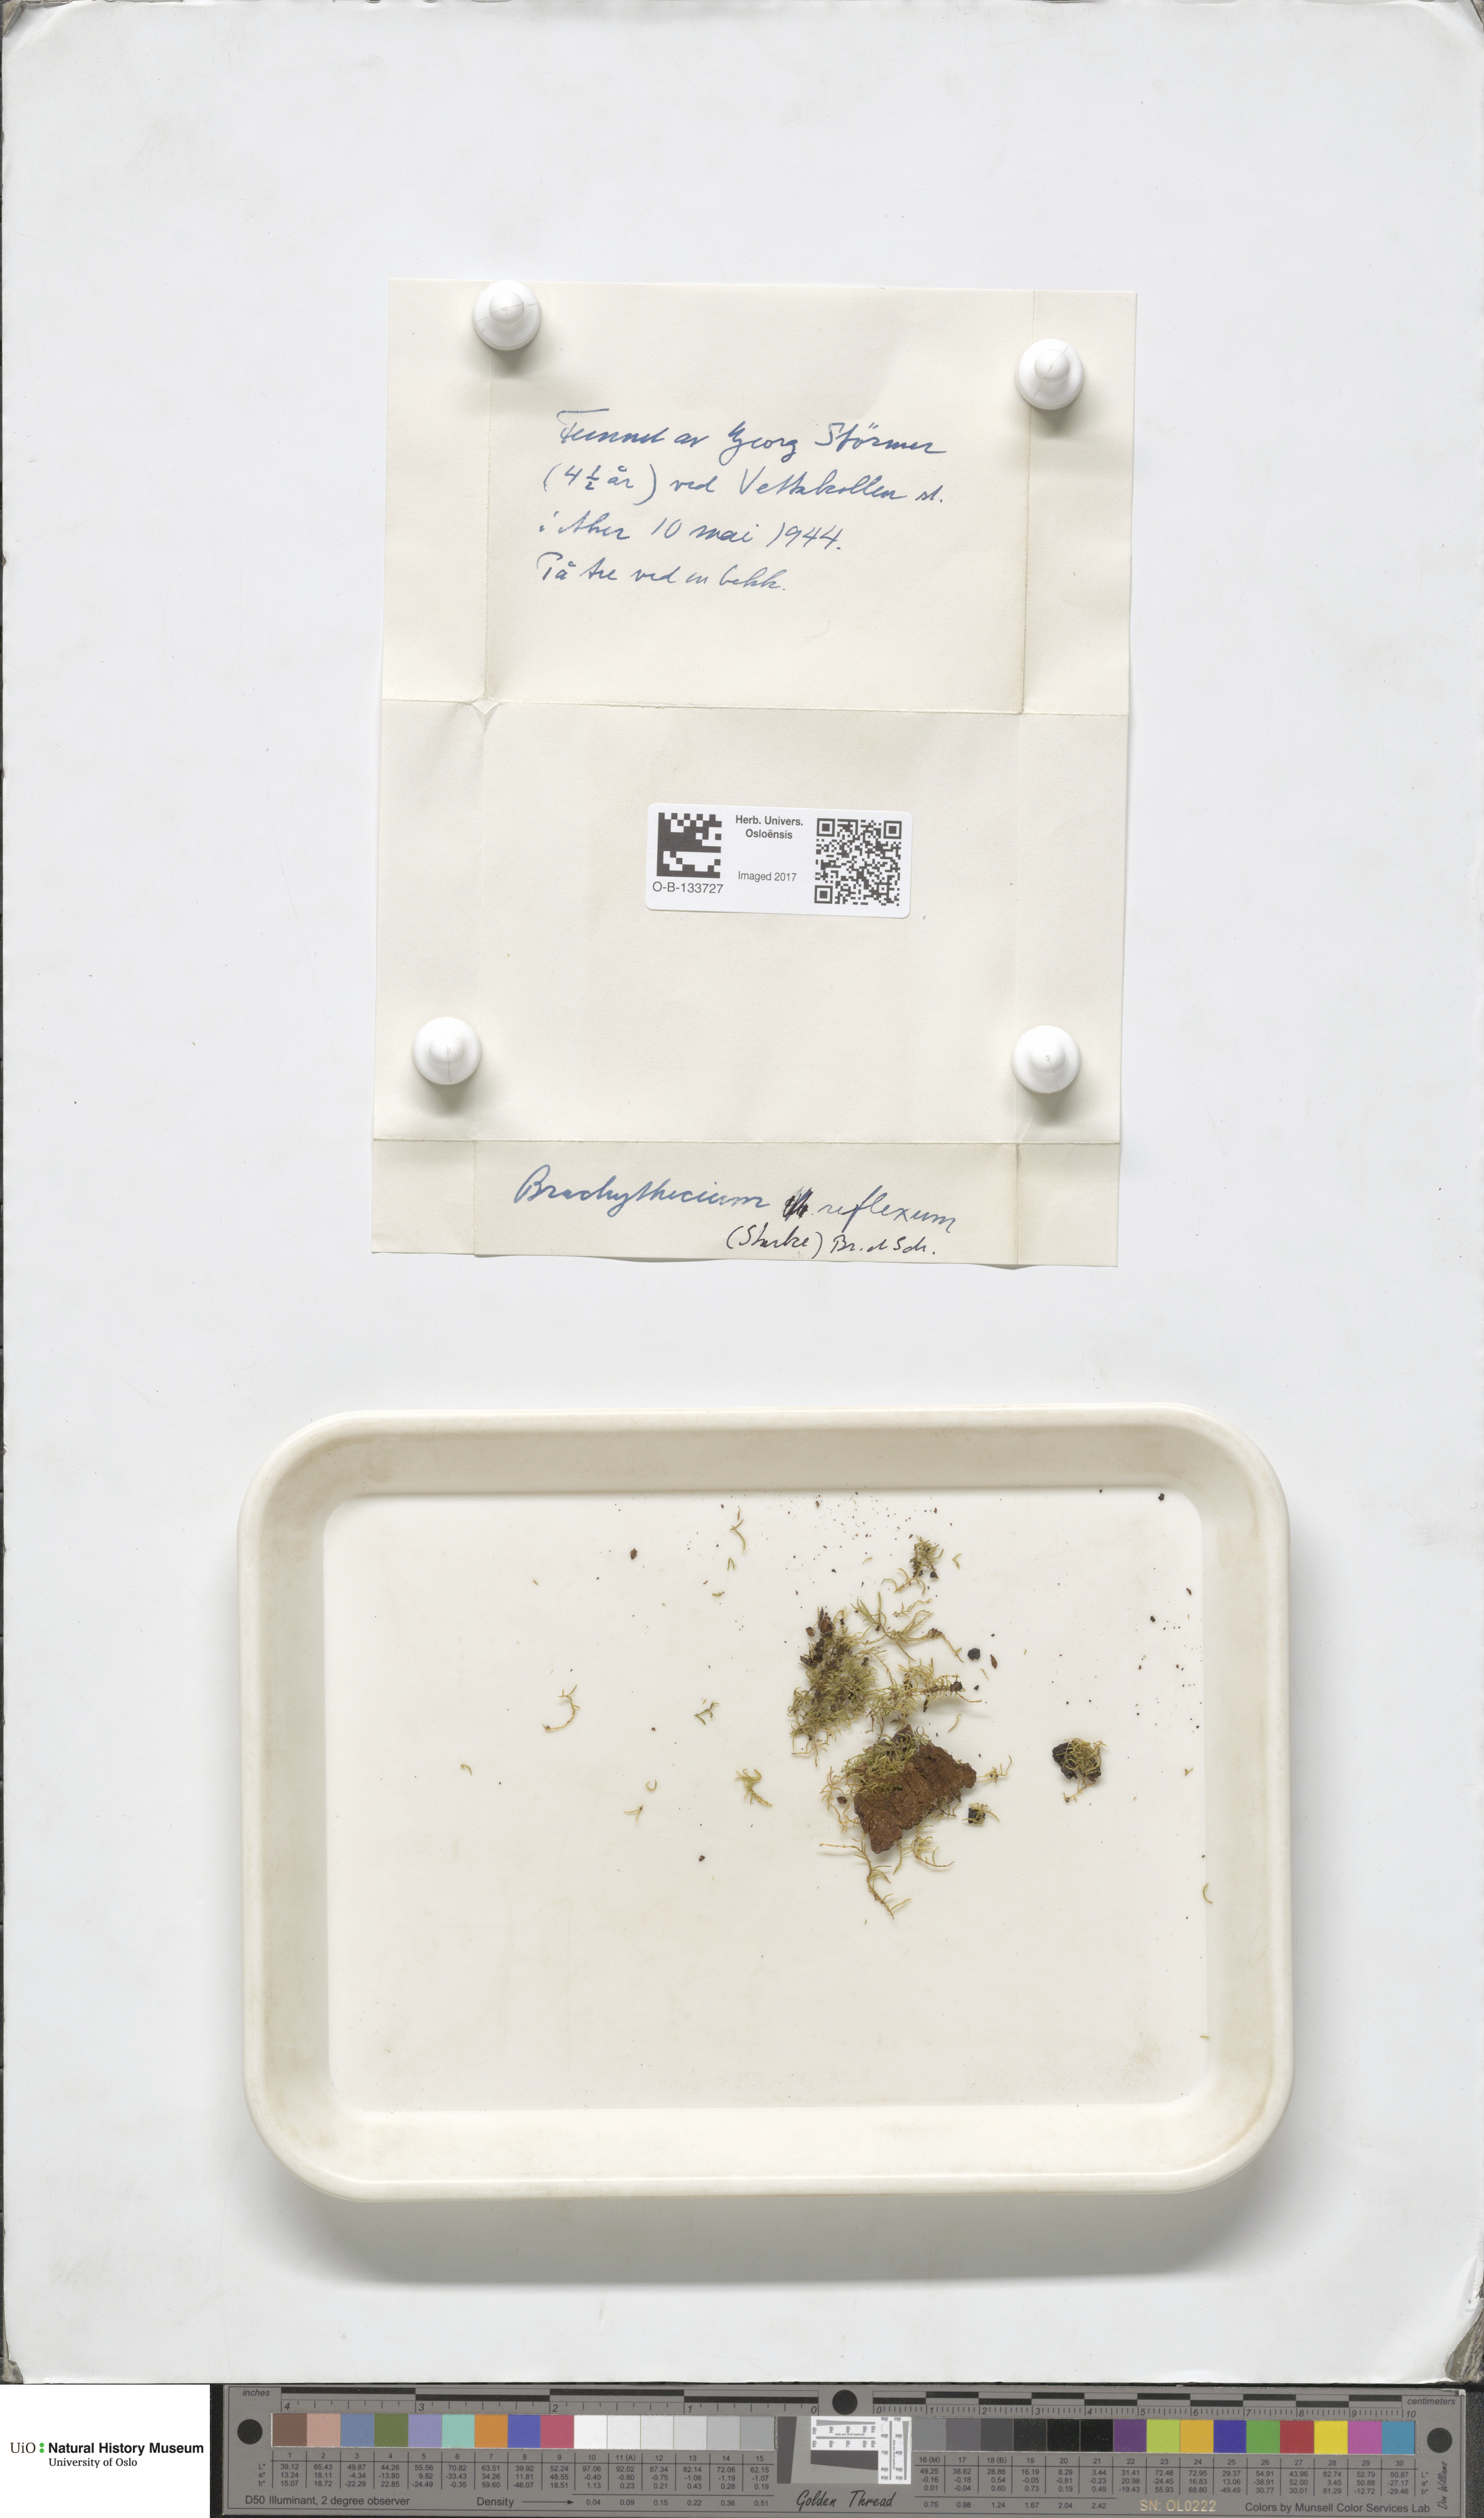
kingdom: Plantae
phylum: Bryophyta
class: Bryopsida
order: Hypnales
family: Brachytheciaceae
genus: Sciuro-hypnum
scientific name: Sciuro-hypnum reflexum
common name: Reflexed feather-moss
